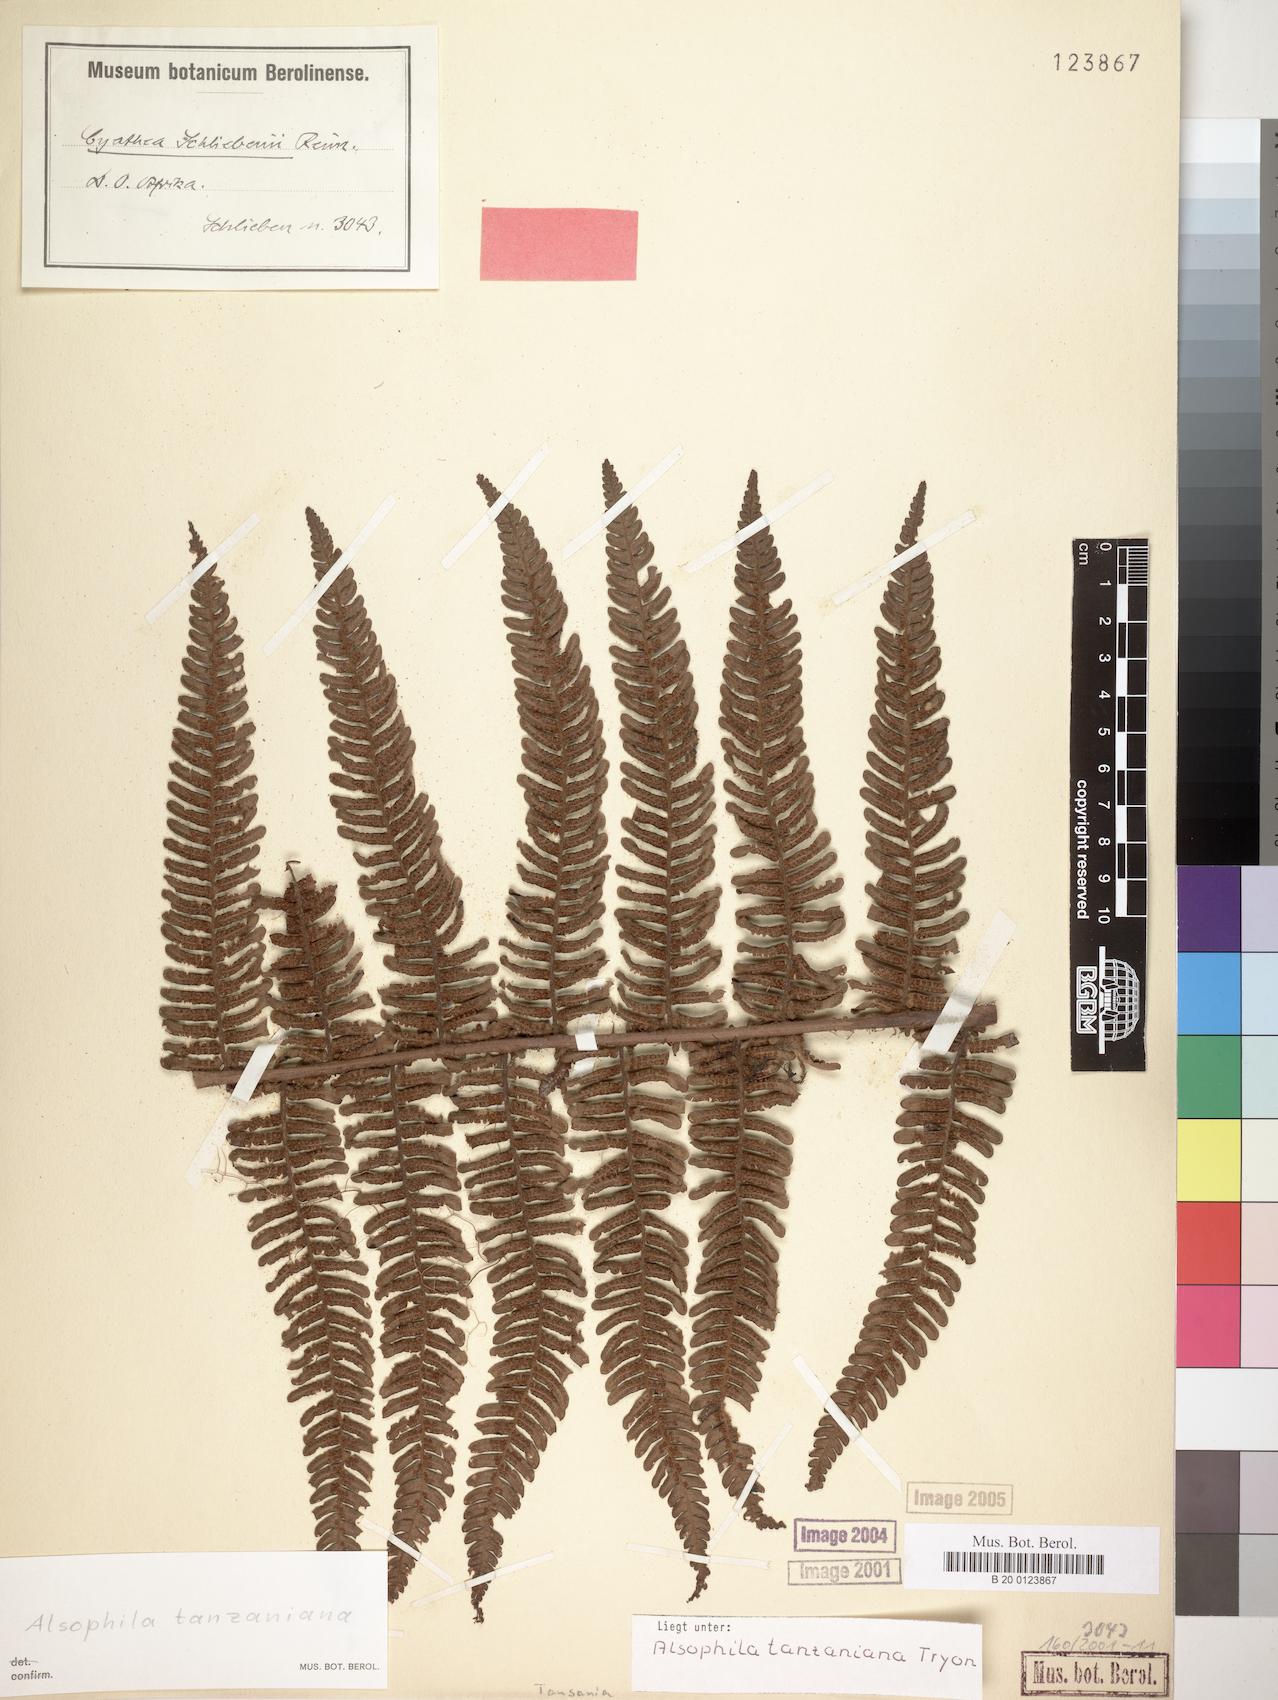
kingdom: Plantae
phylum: Tracheophyta
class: Polypodiopsida
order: Cyatheales
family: Cyatheaceae
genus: Alsophila
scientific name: Alsophila tanzaniana
